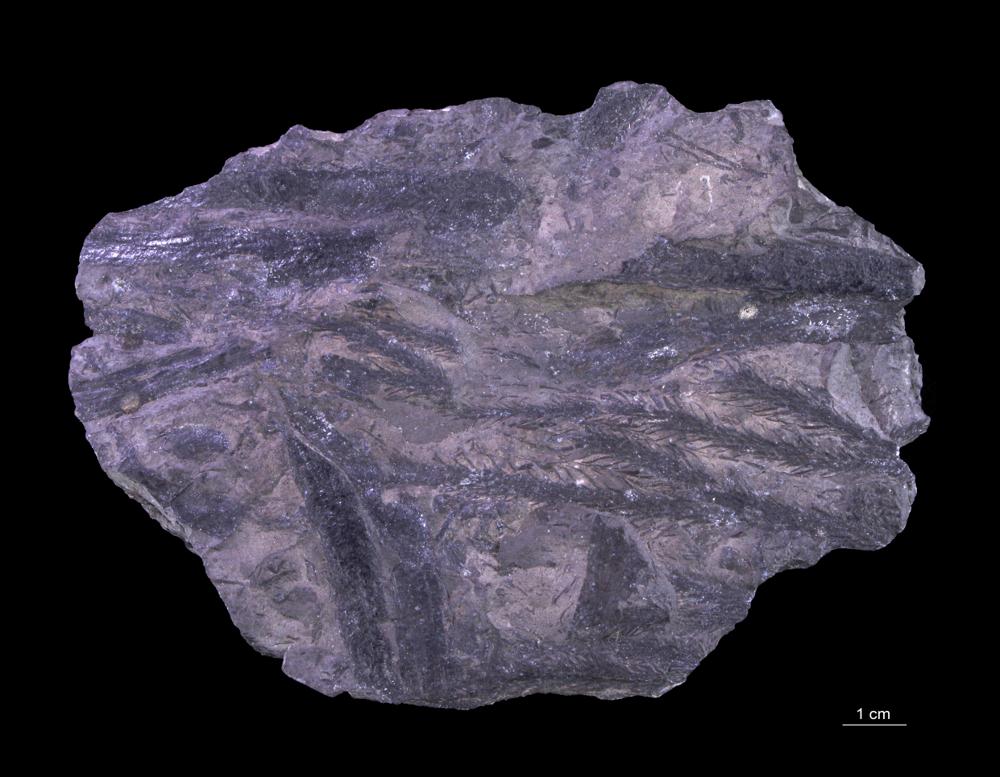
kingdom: Plantae
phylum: Tracheophyta
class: Lycopodiopsida
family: Lepidodendraceae
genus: Lepidodendron
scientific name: Lepidodendron
